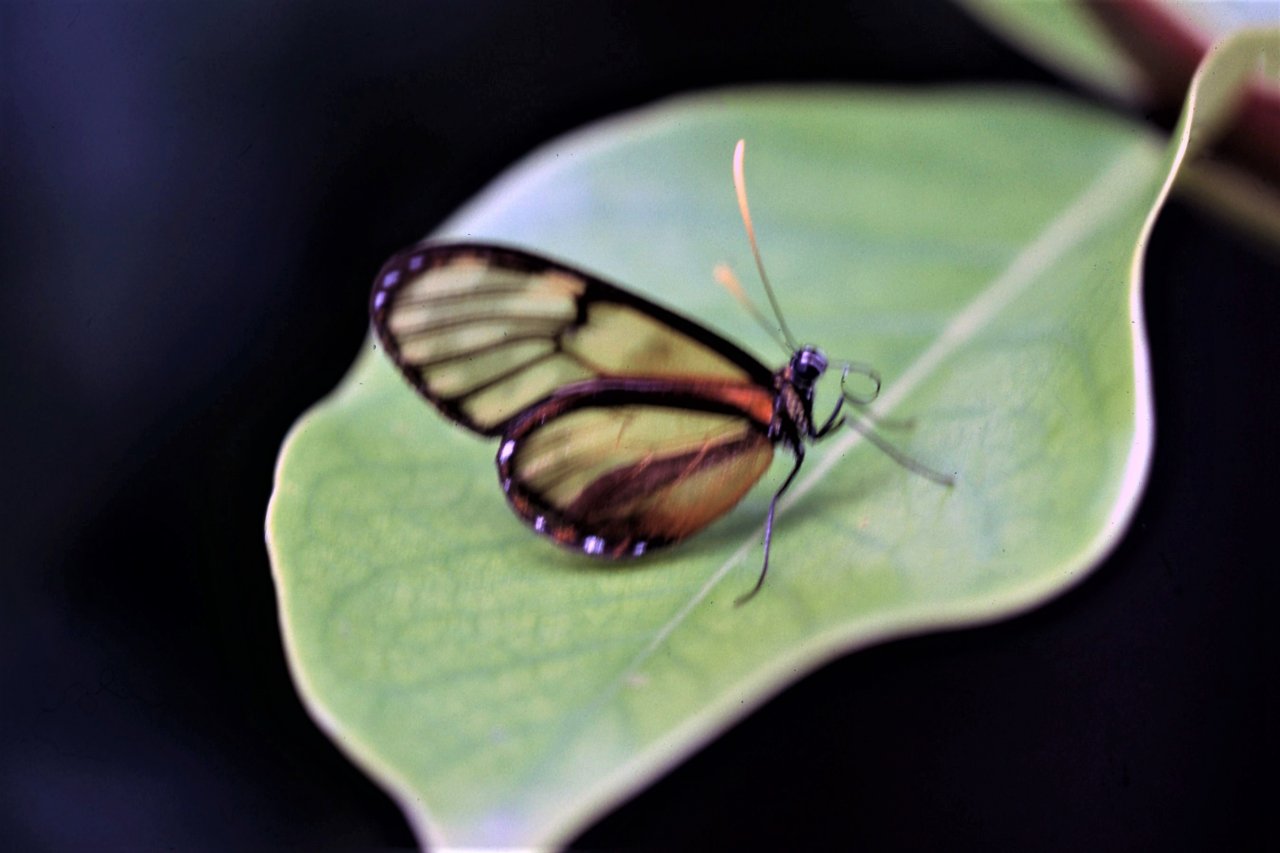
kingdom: Animalia
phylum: Arthropoda
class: Insecta
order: Lepidoptera
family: Nymphalidae
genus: Pteronymia
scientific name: Pteronymia latilla
